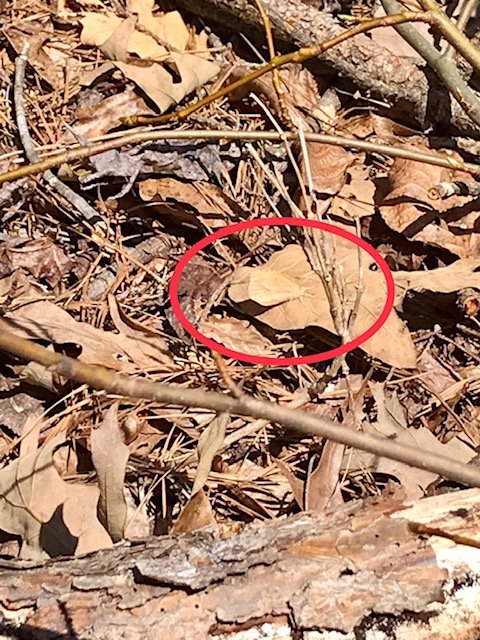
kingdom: Animalia
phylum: Arthropoda
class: Insecta
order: Lepidoptera
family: Pieridae
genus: Abaeis
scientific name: Abaeis nicippe
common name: Sleepy Orange
